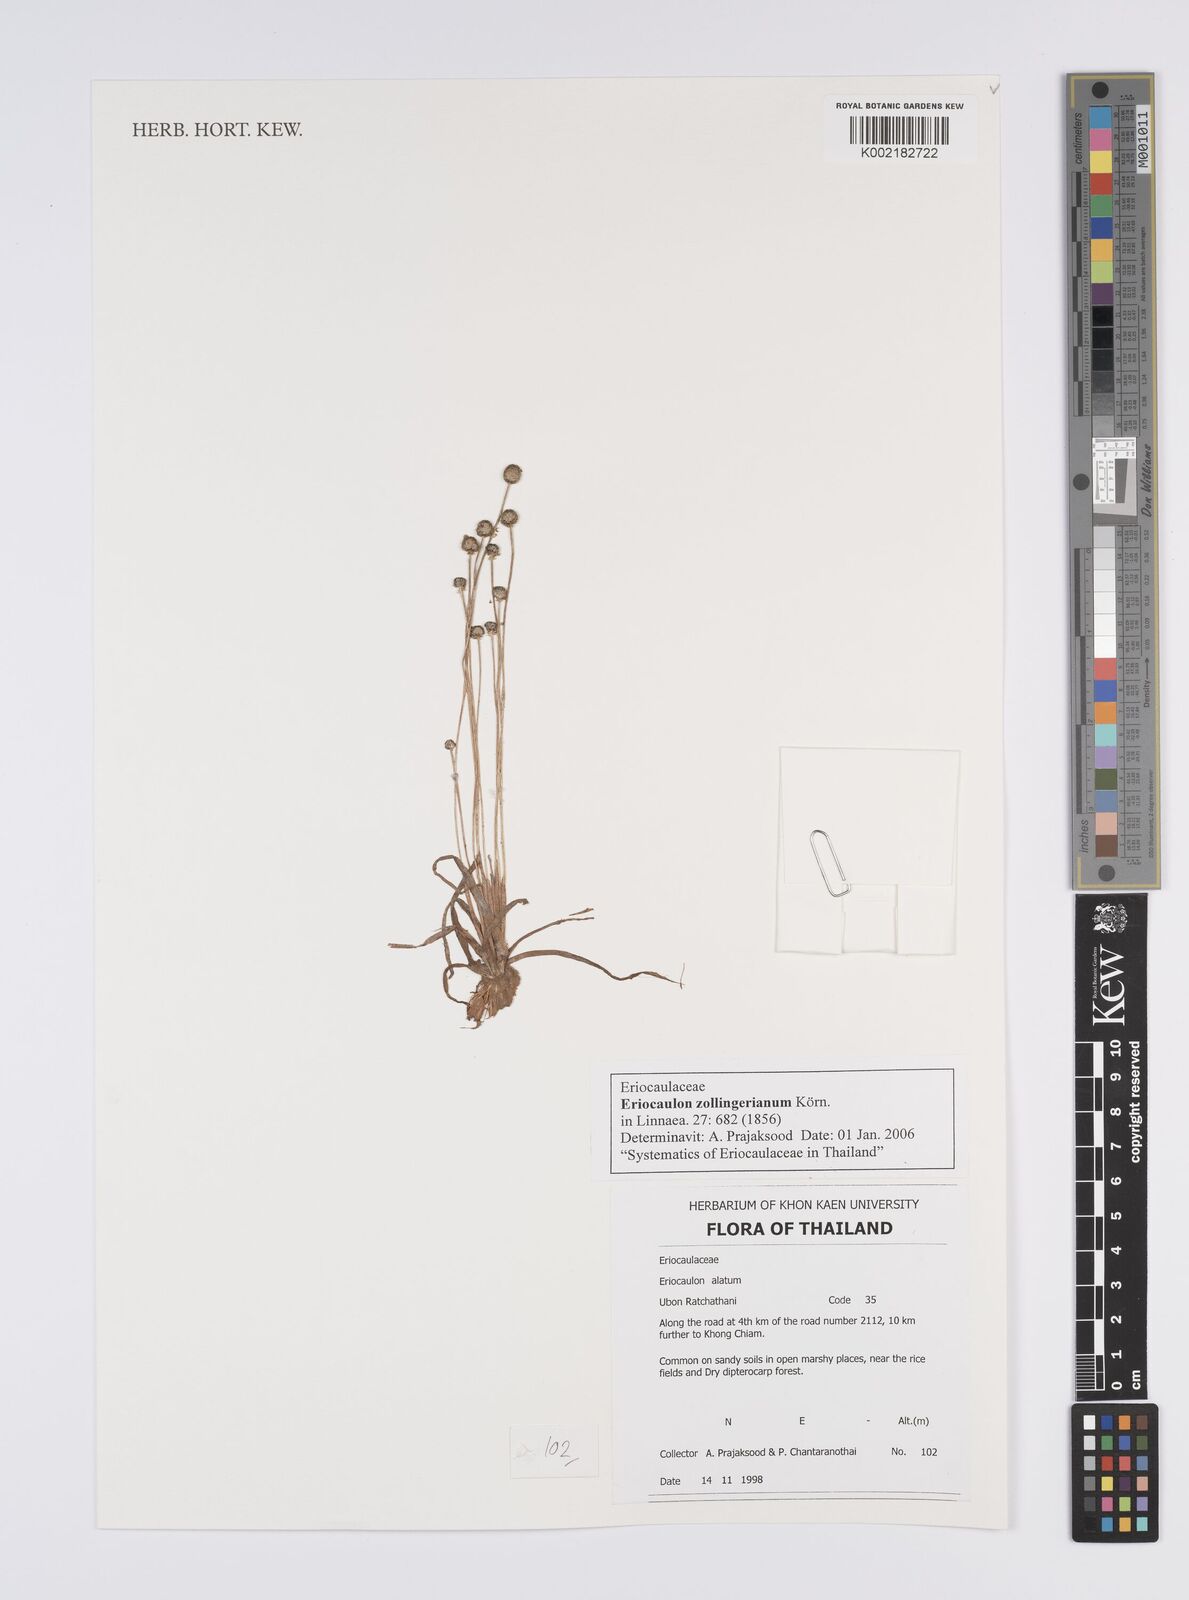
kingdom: Plantae
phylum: Tracheophyta
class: Liliopsida
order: Poales
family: Eriocaulaceae
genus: Eriocaulon
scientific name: Eriocaulon zollingerianum
